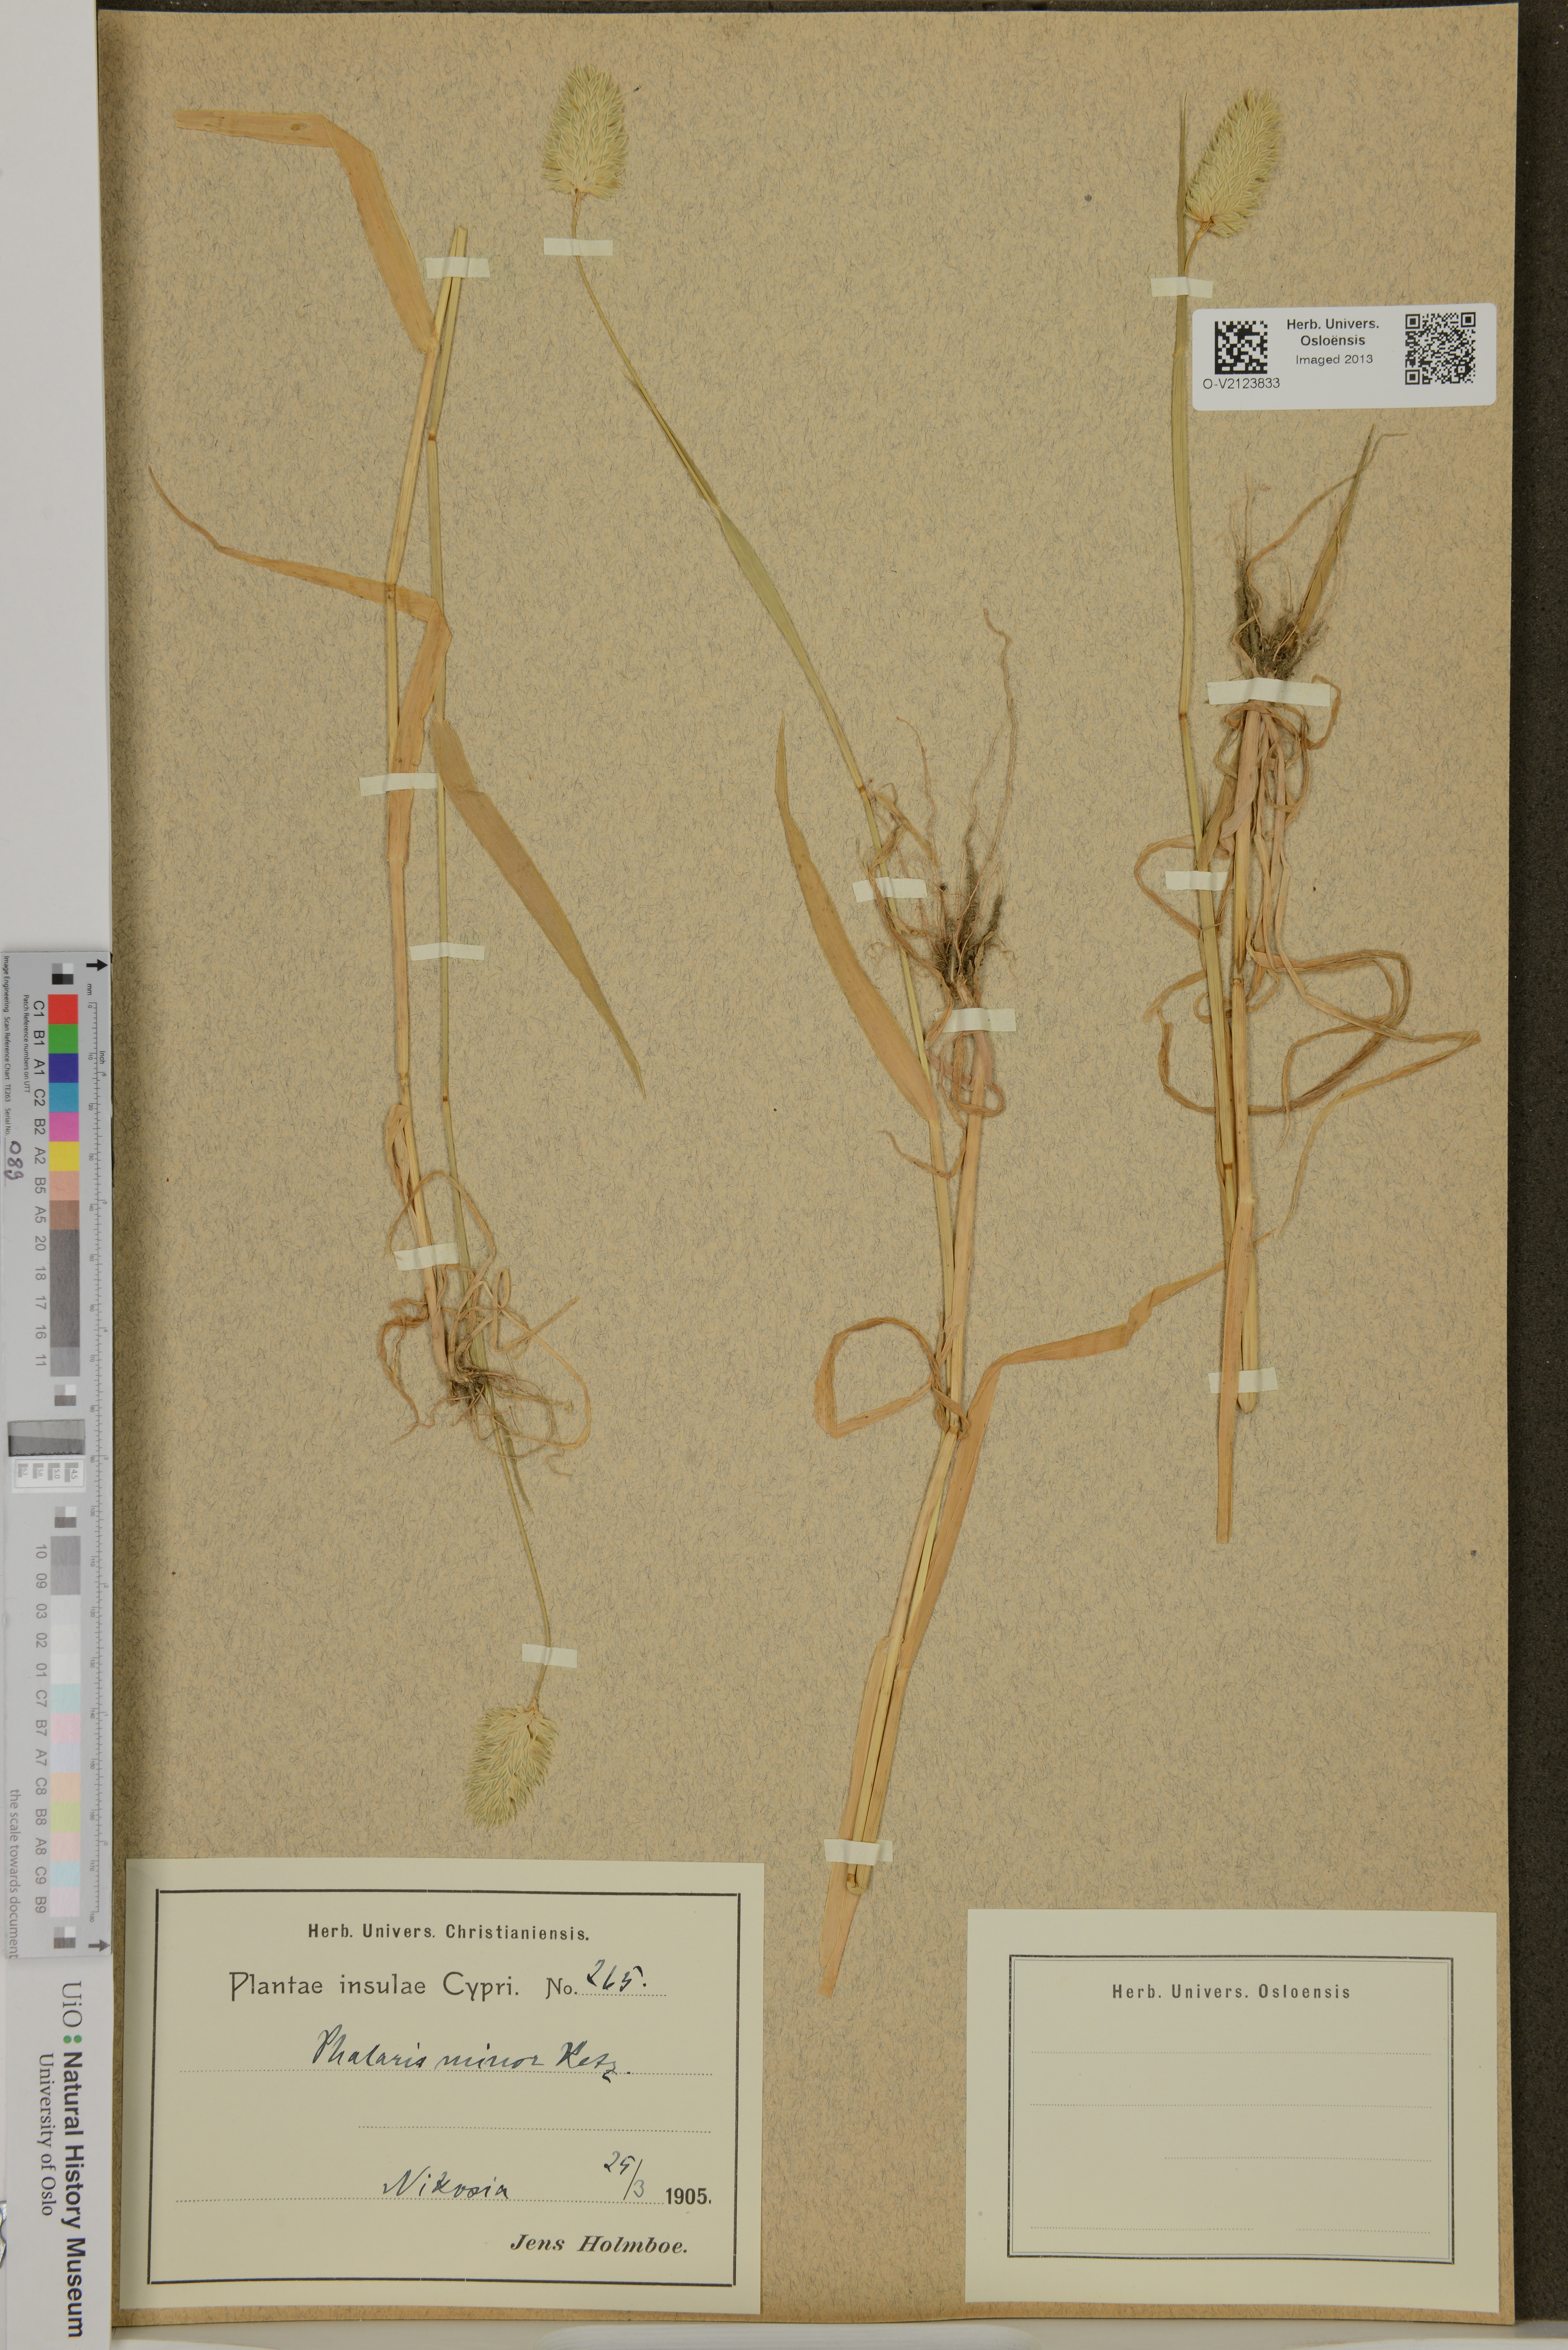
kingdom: Plantae
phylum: Tracheophyta
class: Liliopsida
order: Poales
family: Poaceae
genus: Phalaris
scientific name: Phalaris minor
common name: Littleseed canarygrass
